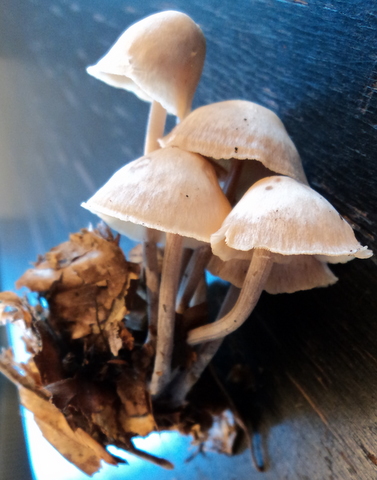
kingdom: Fungi
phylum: Basidiomycota
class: Agaricomycetes
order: Agaricales
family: Omphalotaceae
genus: Collybiopsis
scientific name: Collybiopsis confluens
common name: knippe-fladhat
